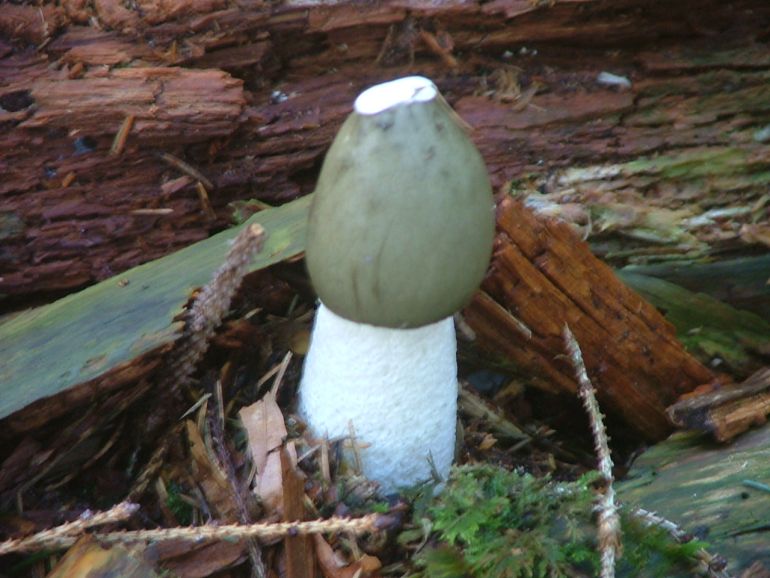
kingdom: Fungi
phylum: Basidiomycota
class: Agaricomycetes
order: Phallales
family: Phallaceae
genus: Phallus
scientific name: Phallus impudicus
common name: almindelig stinksvamp
